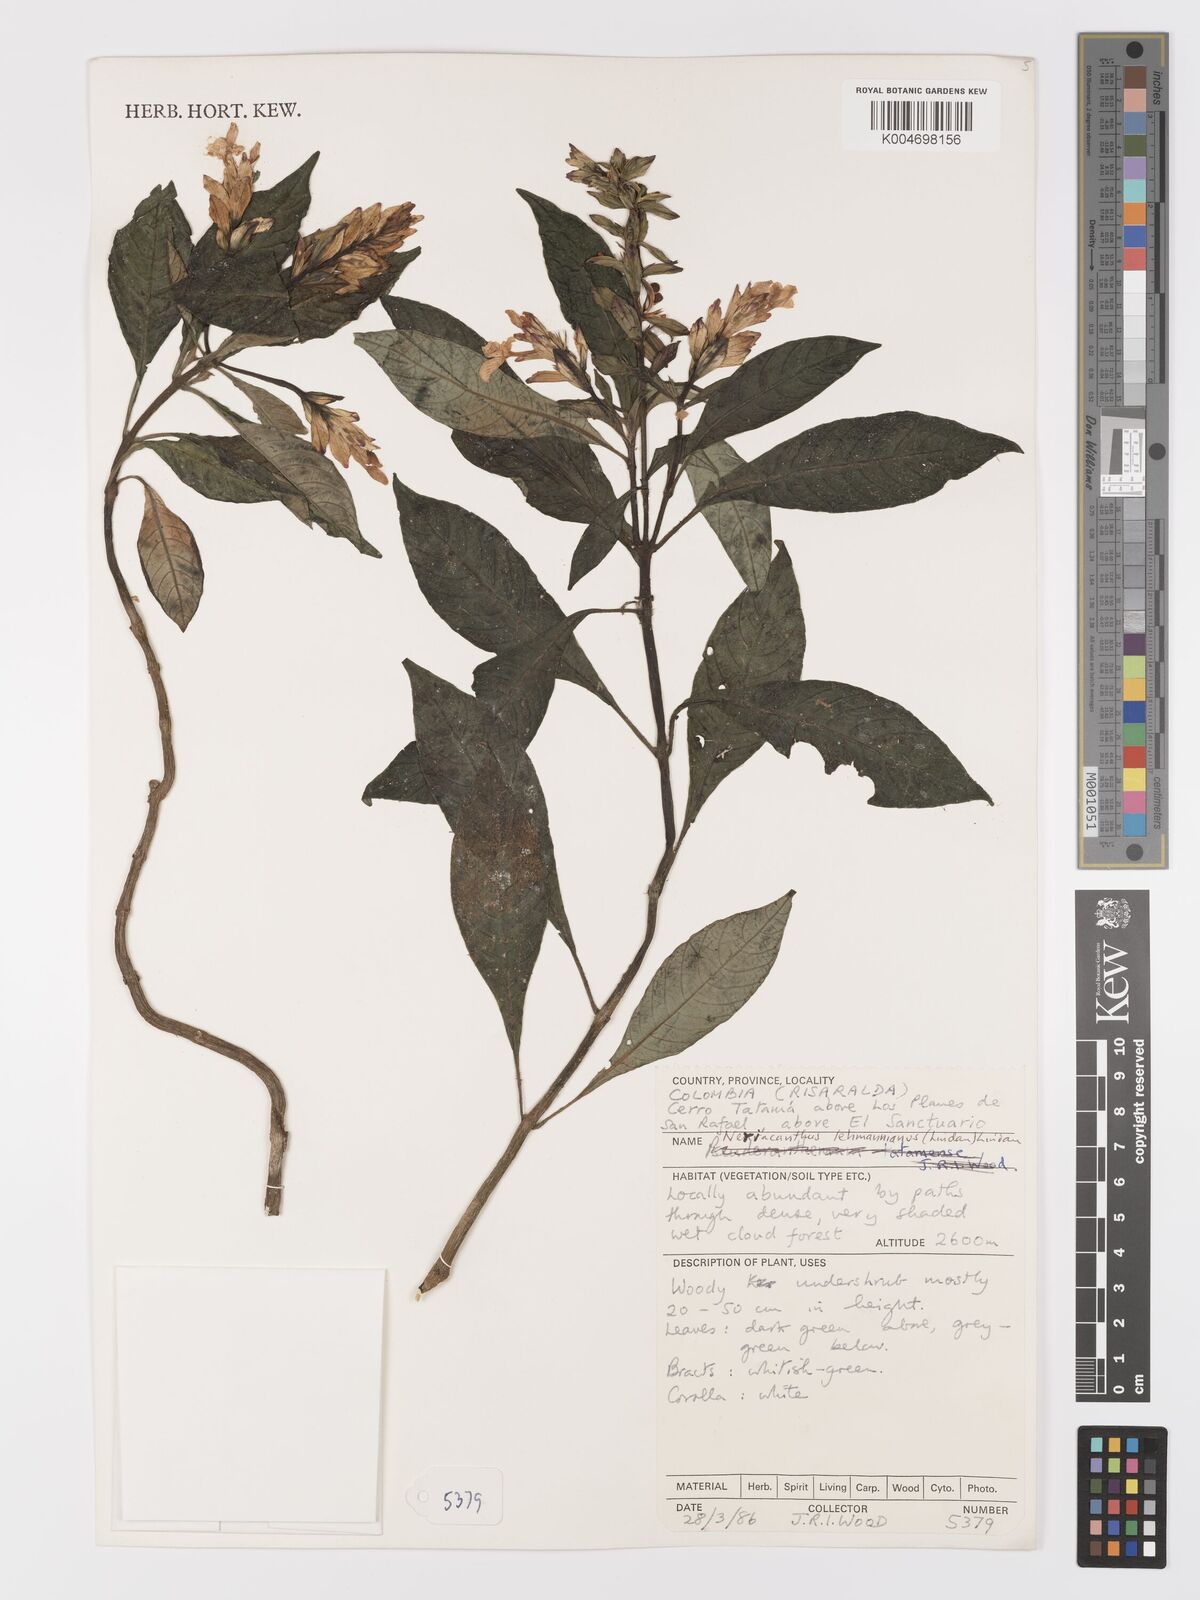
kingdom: Plantae
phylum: Tracheophyta
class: Magnoliopsida
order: Lamiales
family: Acanthaceae
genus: Neriacanthus
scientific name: Neriacanthus lehmannianus
